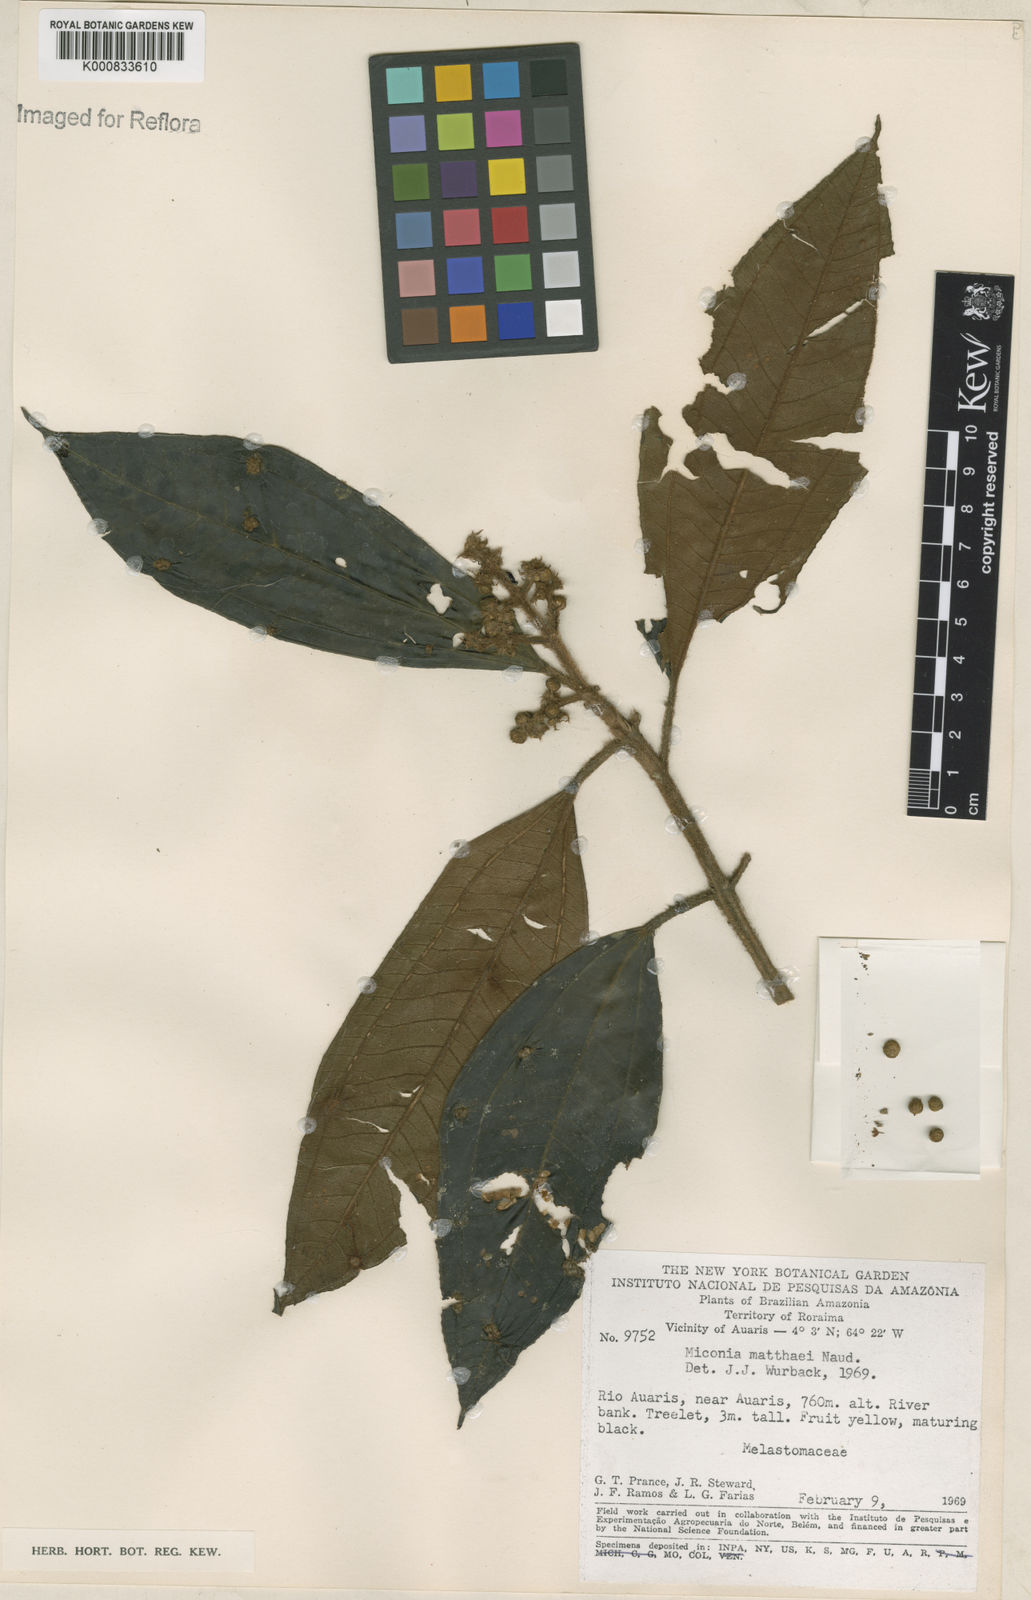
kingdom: Plantae
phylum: Tracheophyta
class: Magnoliopsida
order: Myrtales
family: Melastomataceae
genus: Miconia
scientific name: Miconia matthaei
